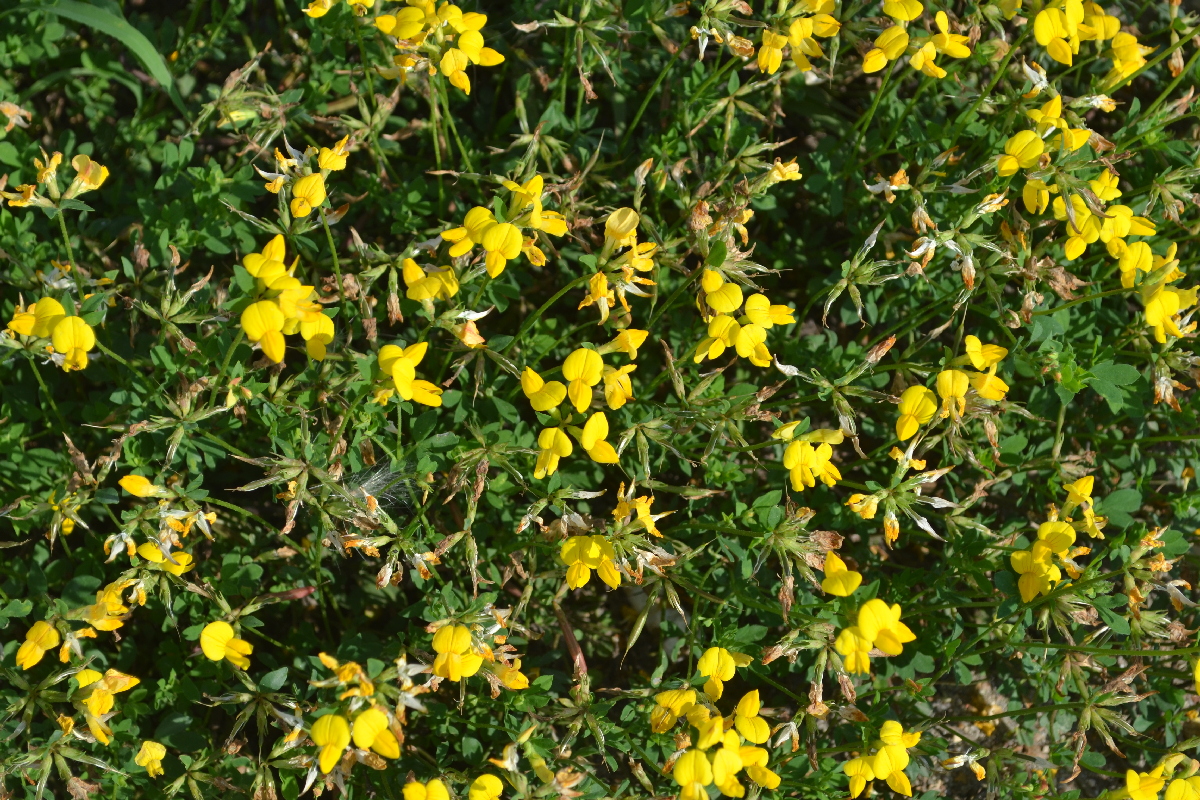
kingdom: Plantae
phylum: Tracheophyta
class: Magnoliopsida
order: Fabales
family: Fabaceae
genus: Lotus
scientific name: Lotus corniculatus
